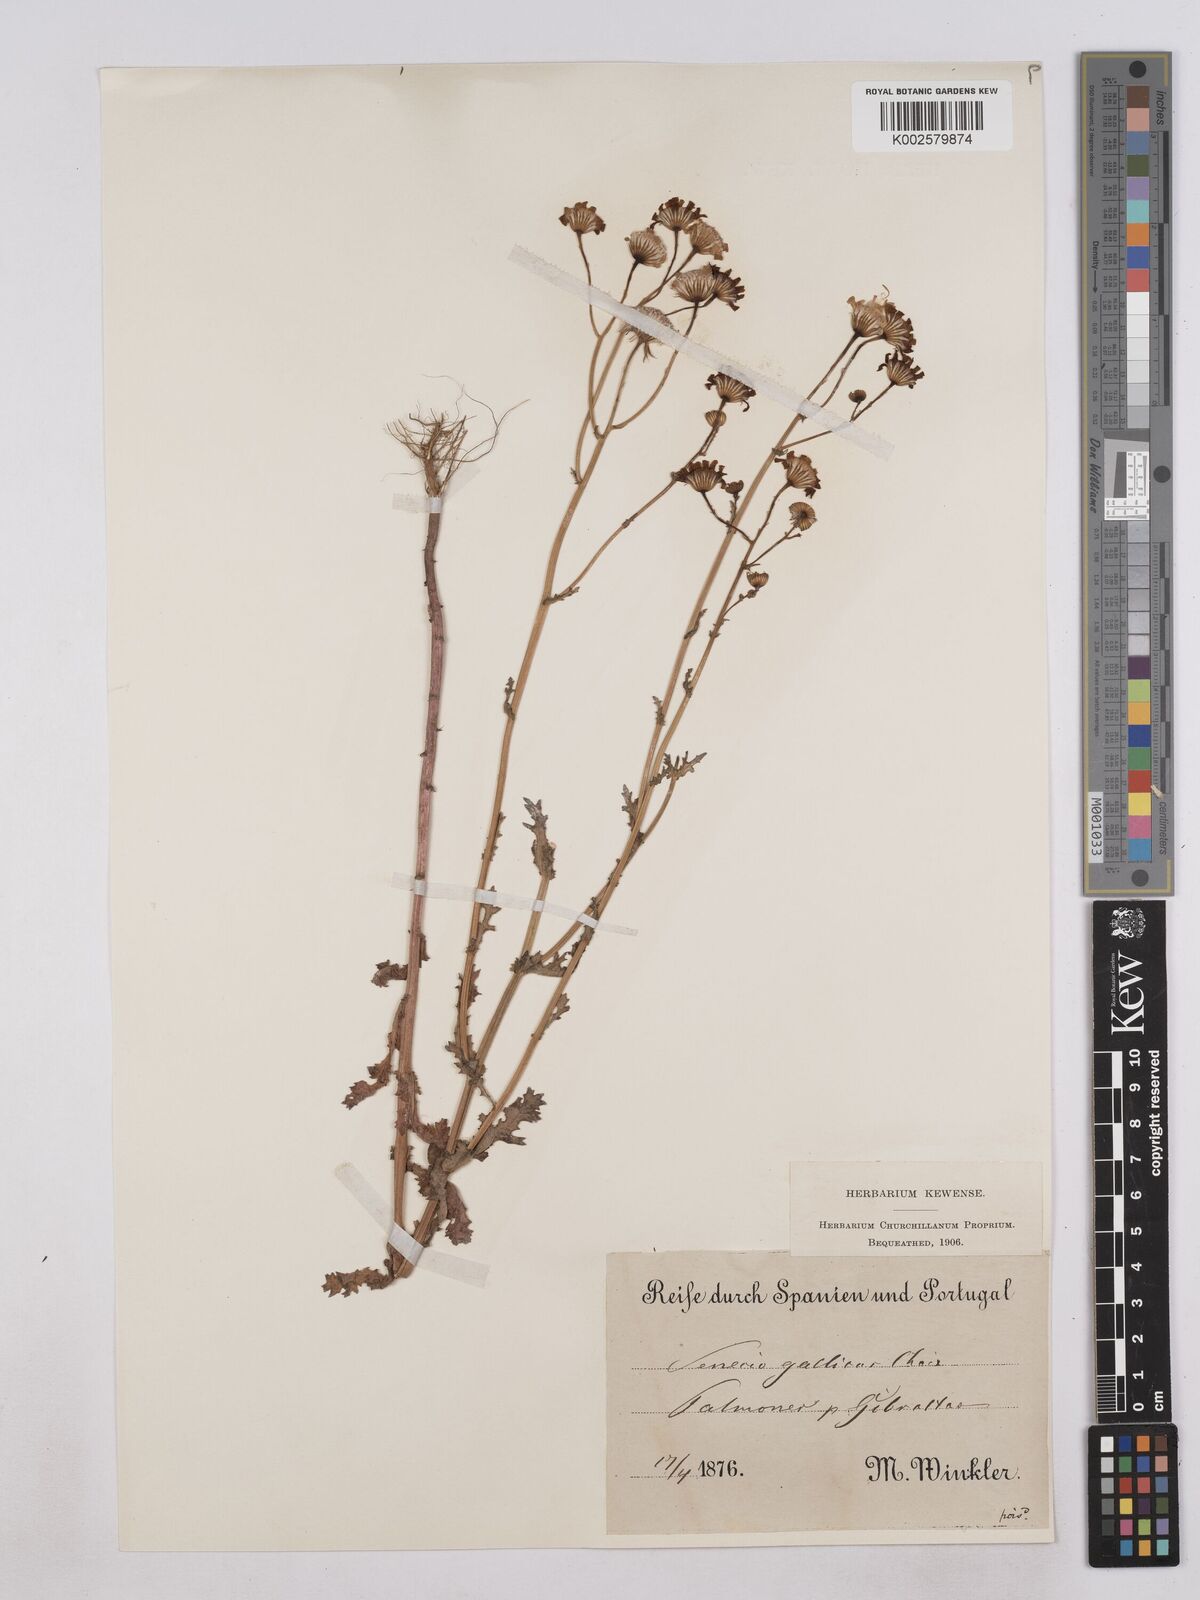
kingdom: Plantae
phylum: Tracheophyta
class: Magnoliopsida
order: Asterales
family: Asteraceae
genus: Senecio
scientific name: Senecio gallicus
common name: French groundsel
